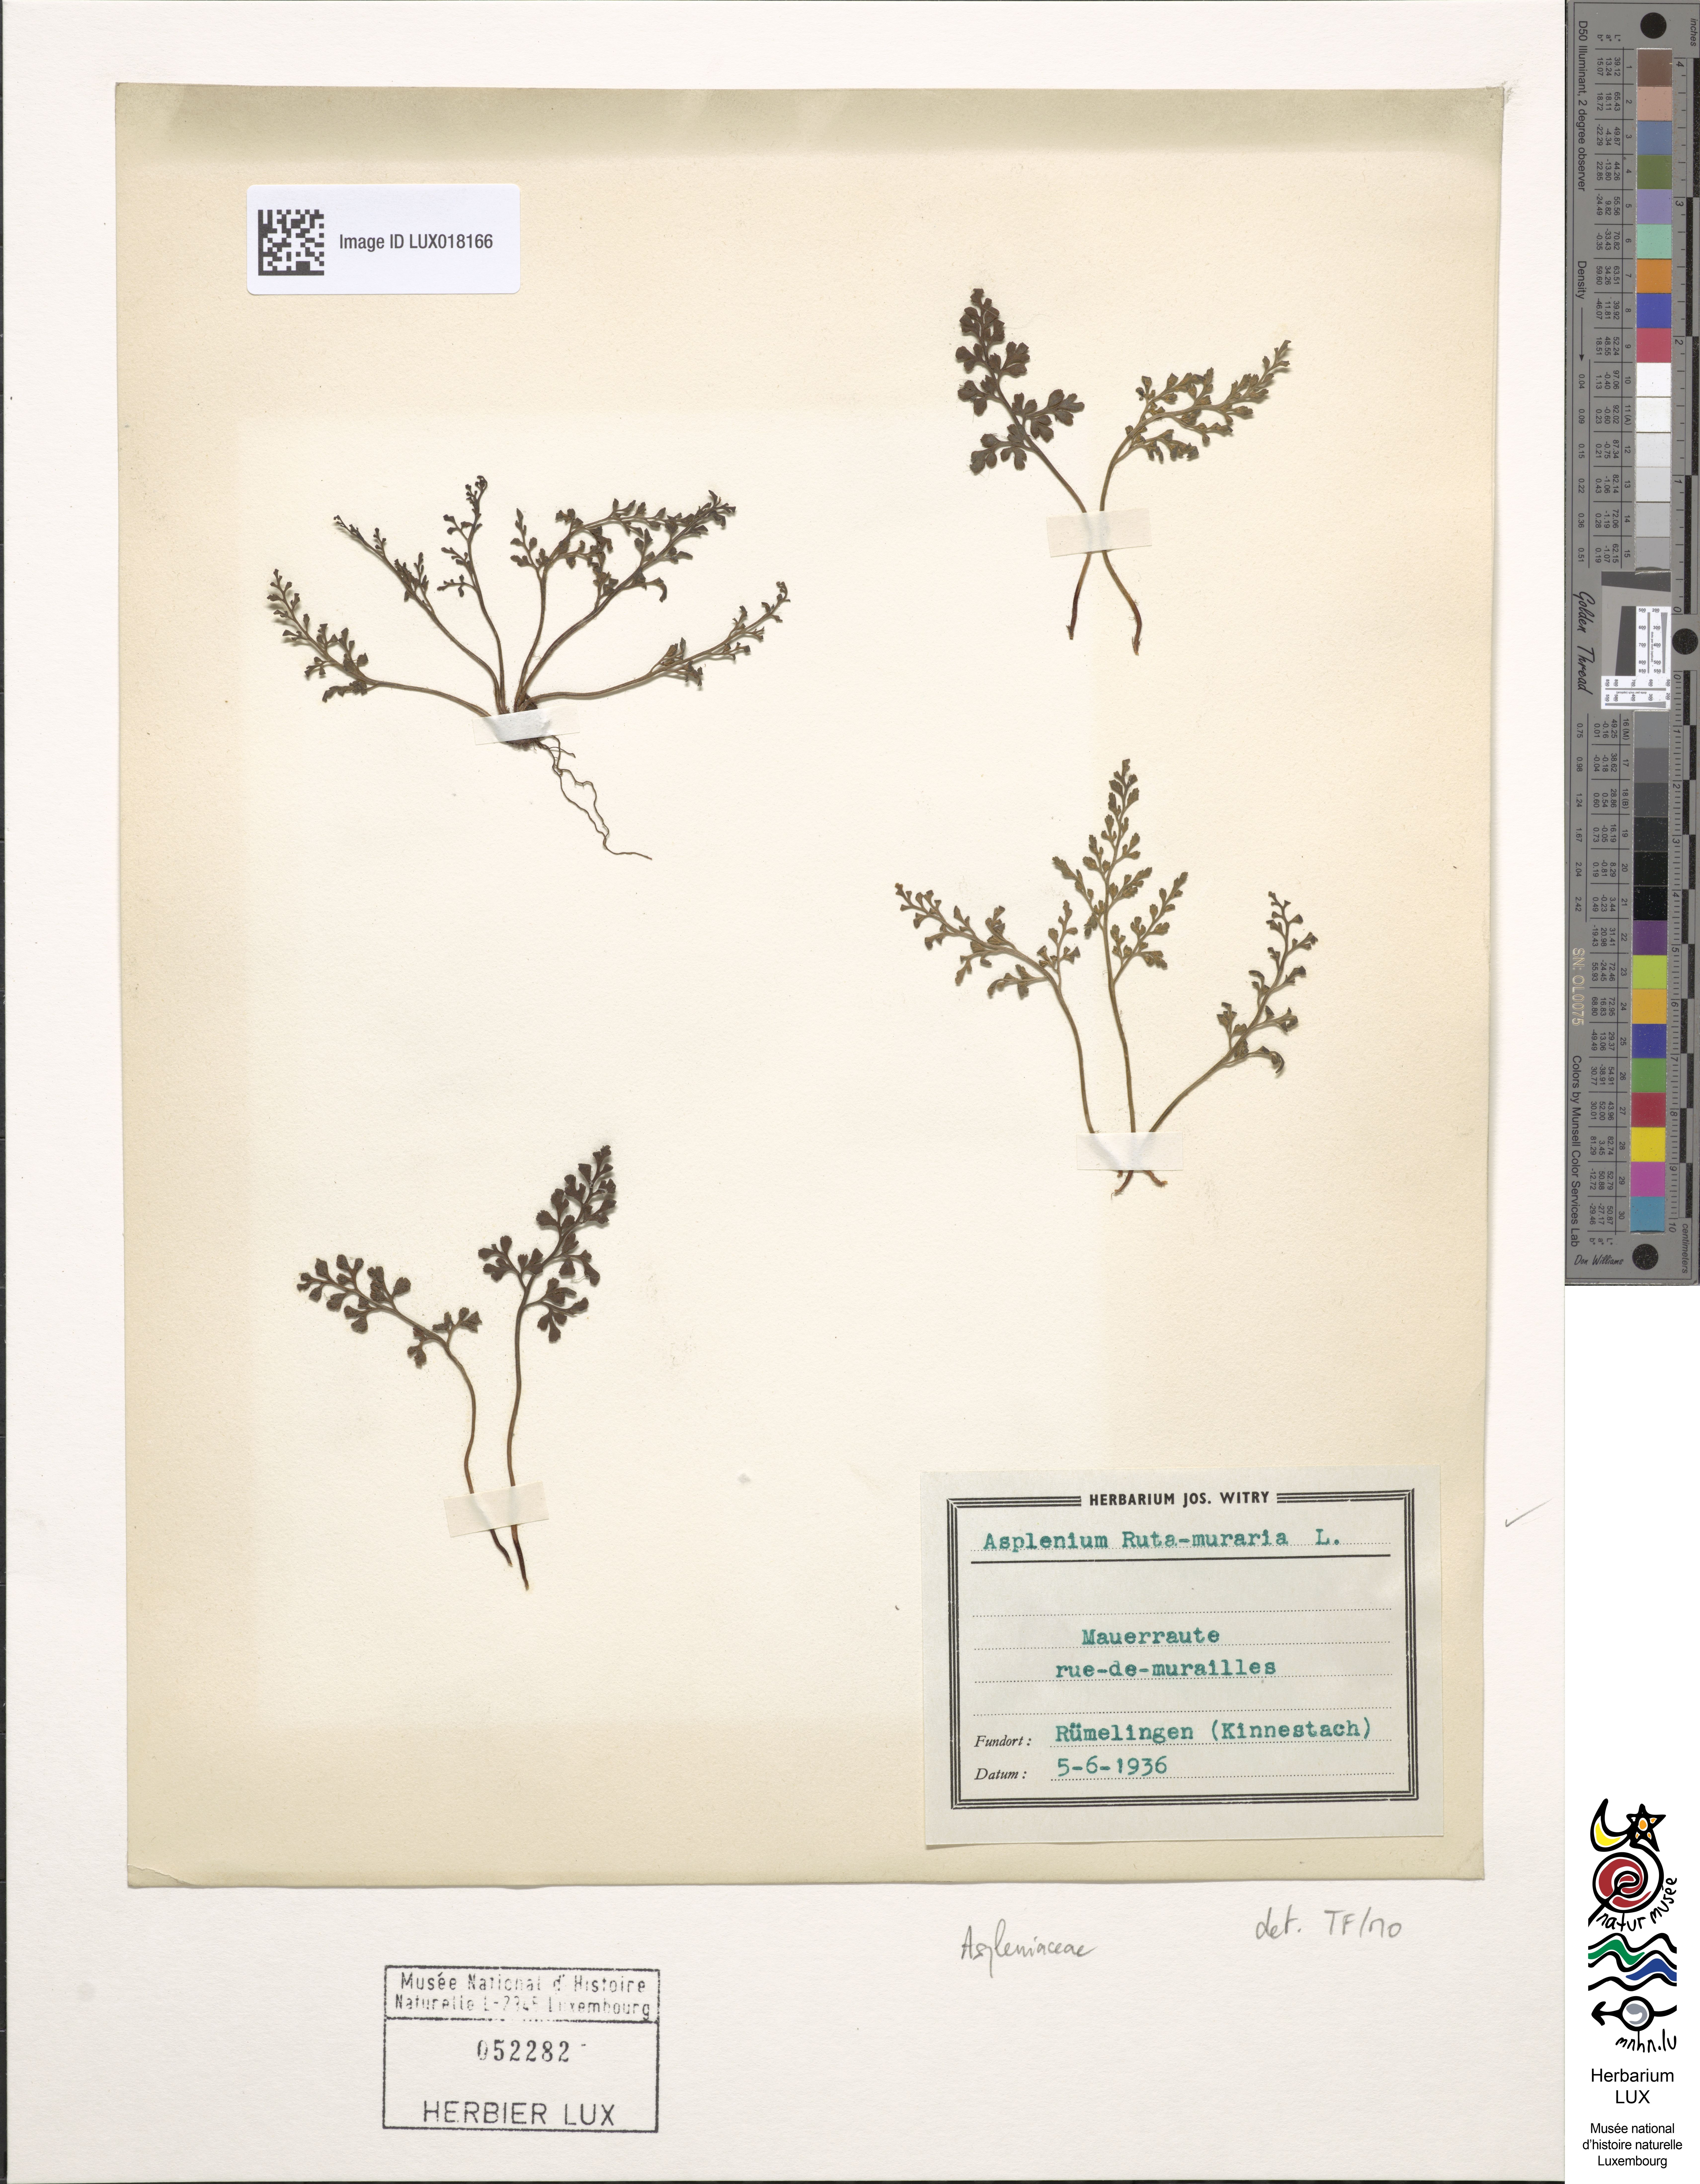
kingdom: Plantae
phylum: Tracheophyta
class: Polypodiopsida
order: Polypodiales
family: Aspleniaceae
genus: Asplenium
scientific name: Asplenium ruta-muraria
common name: Wall-rue
